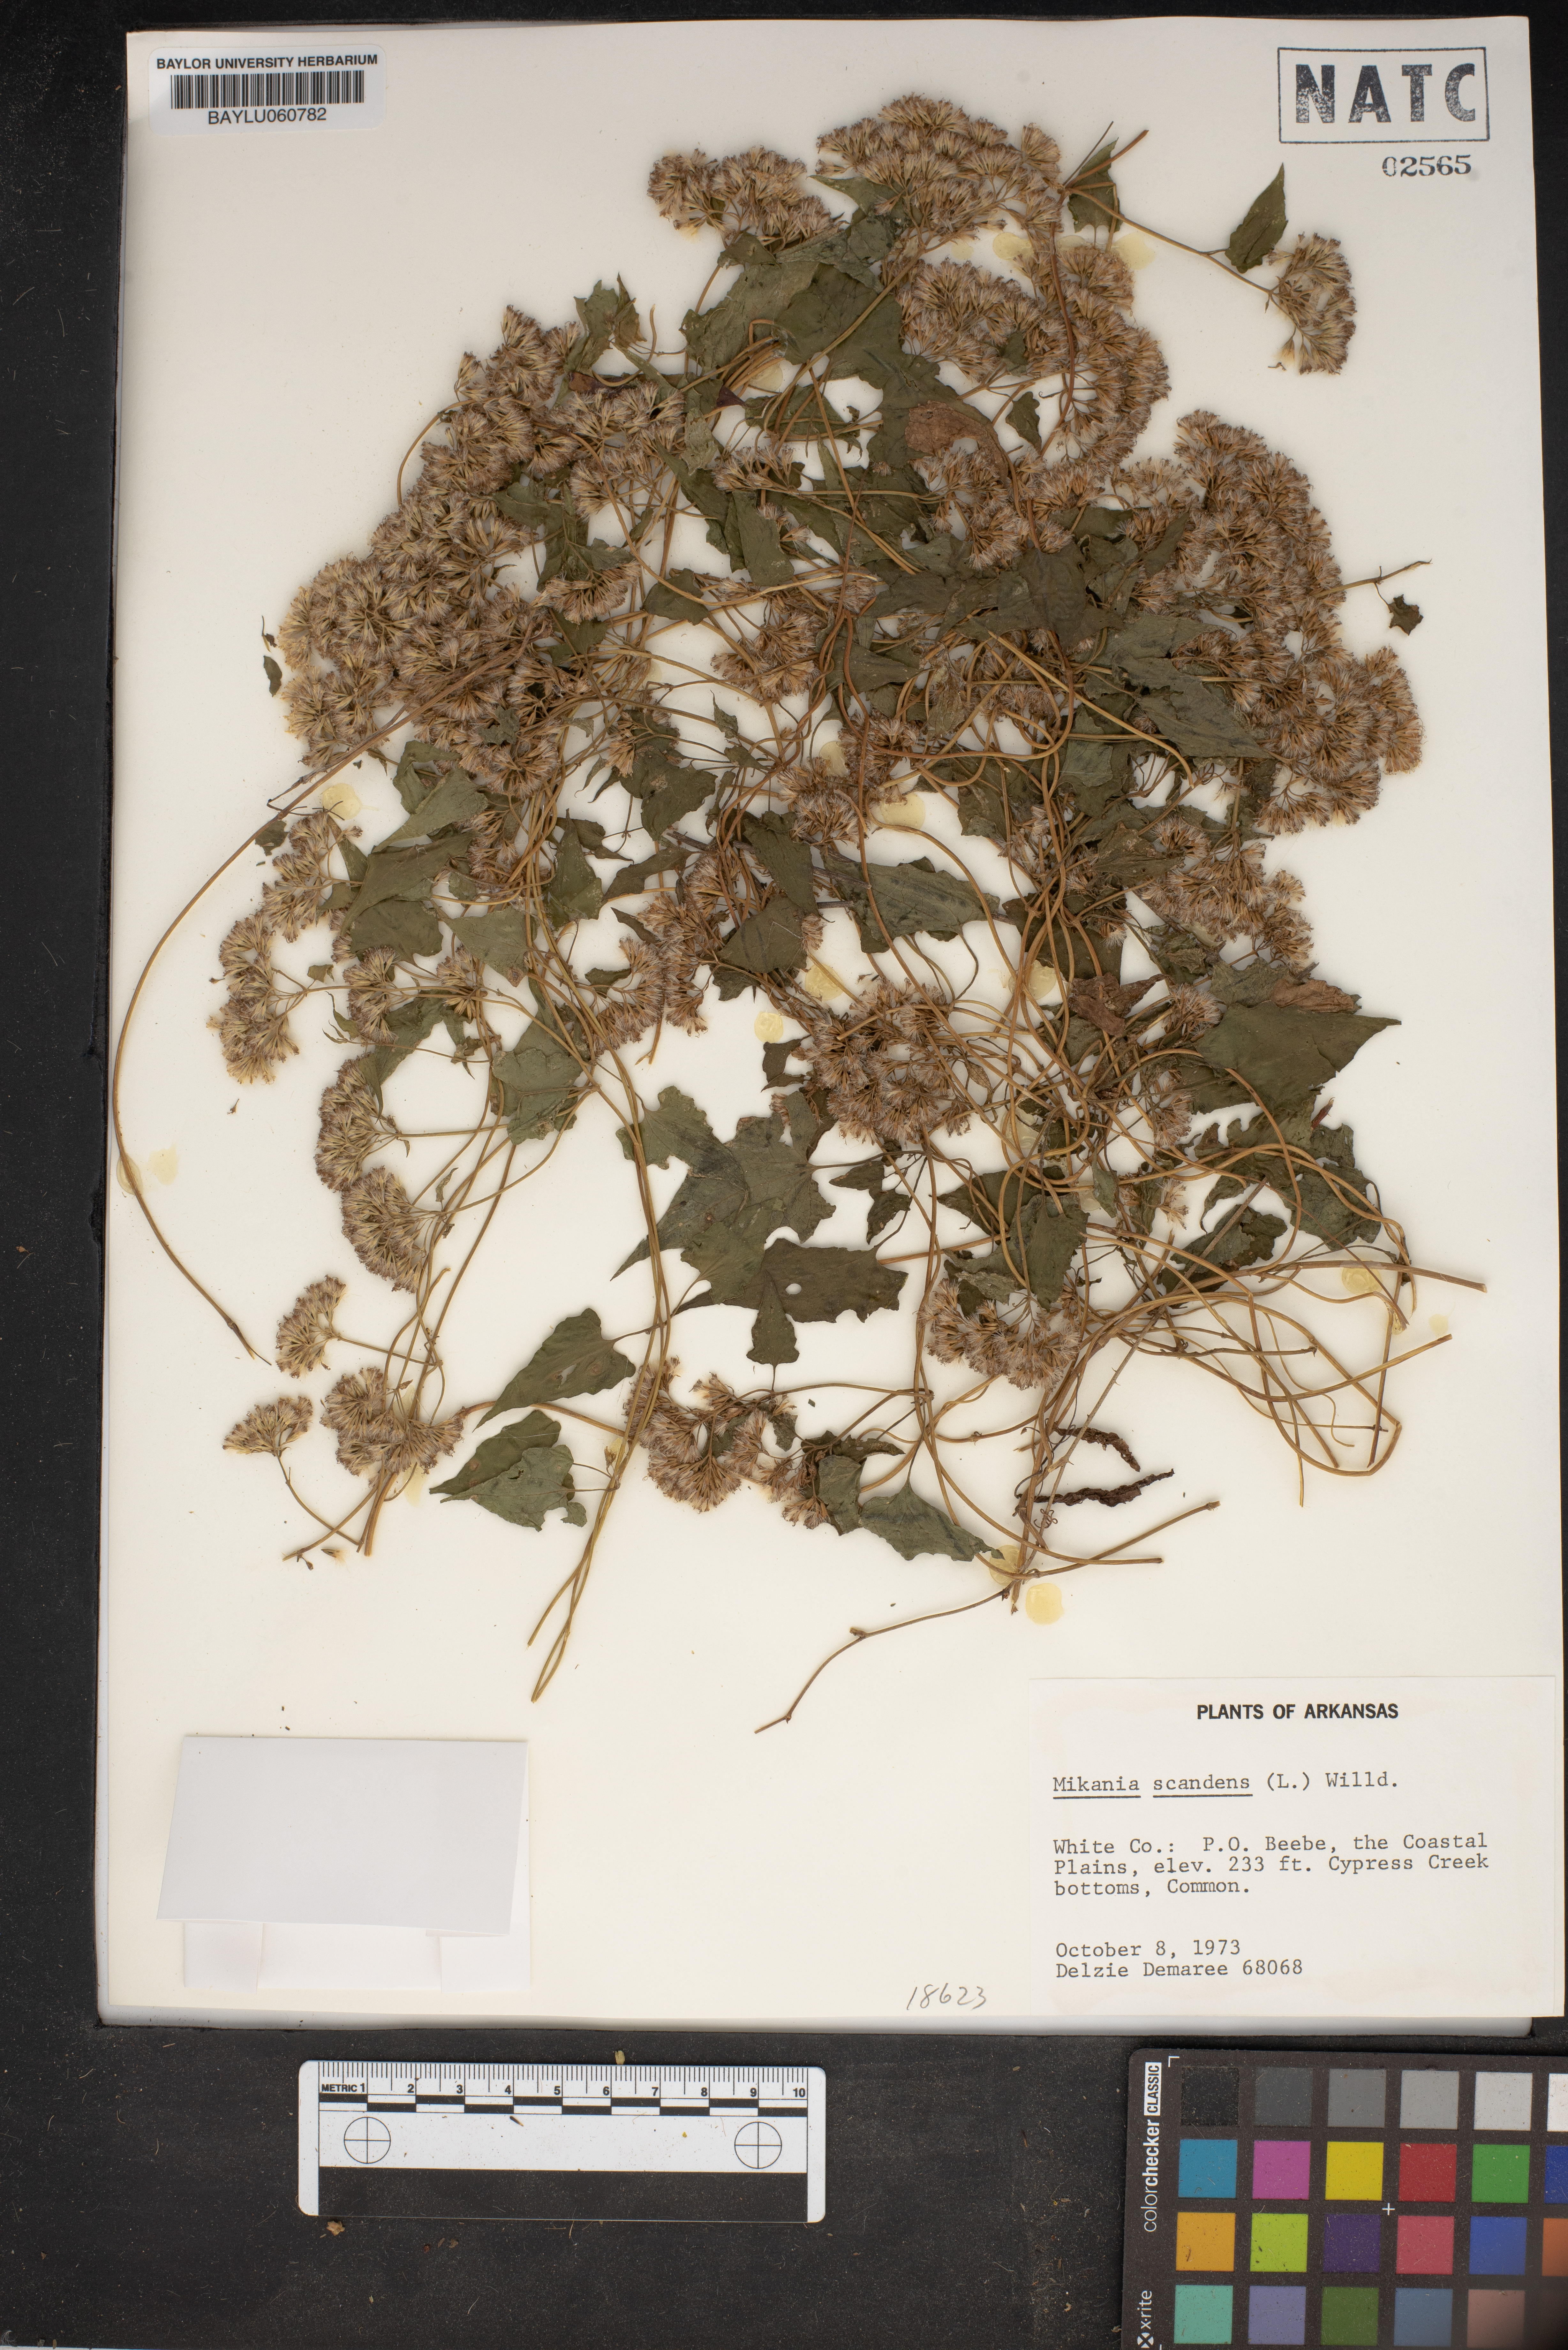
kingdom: Plantae
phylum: Tracheophyta
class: Magnoliopsida
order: Asterales
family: Asteraceae
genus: Mikania
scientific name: Mikania scandens
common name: Climbing hempvine
